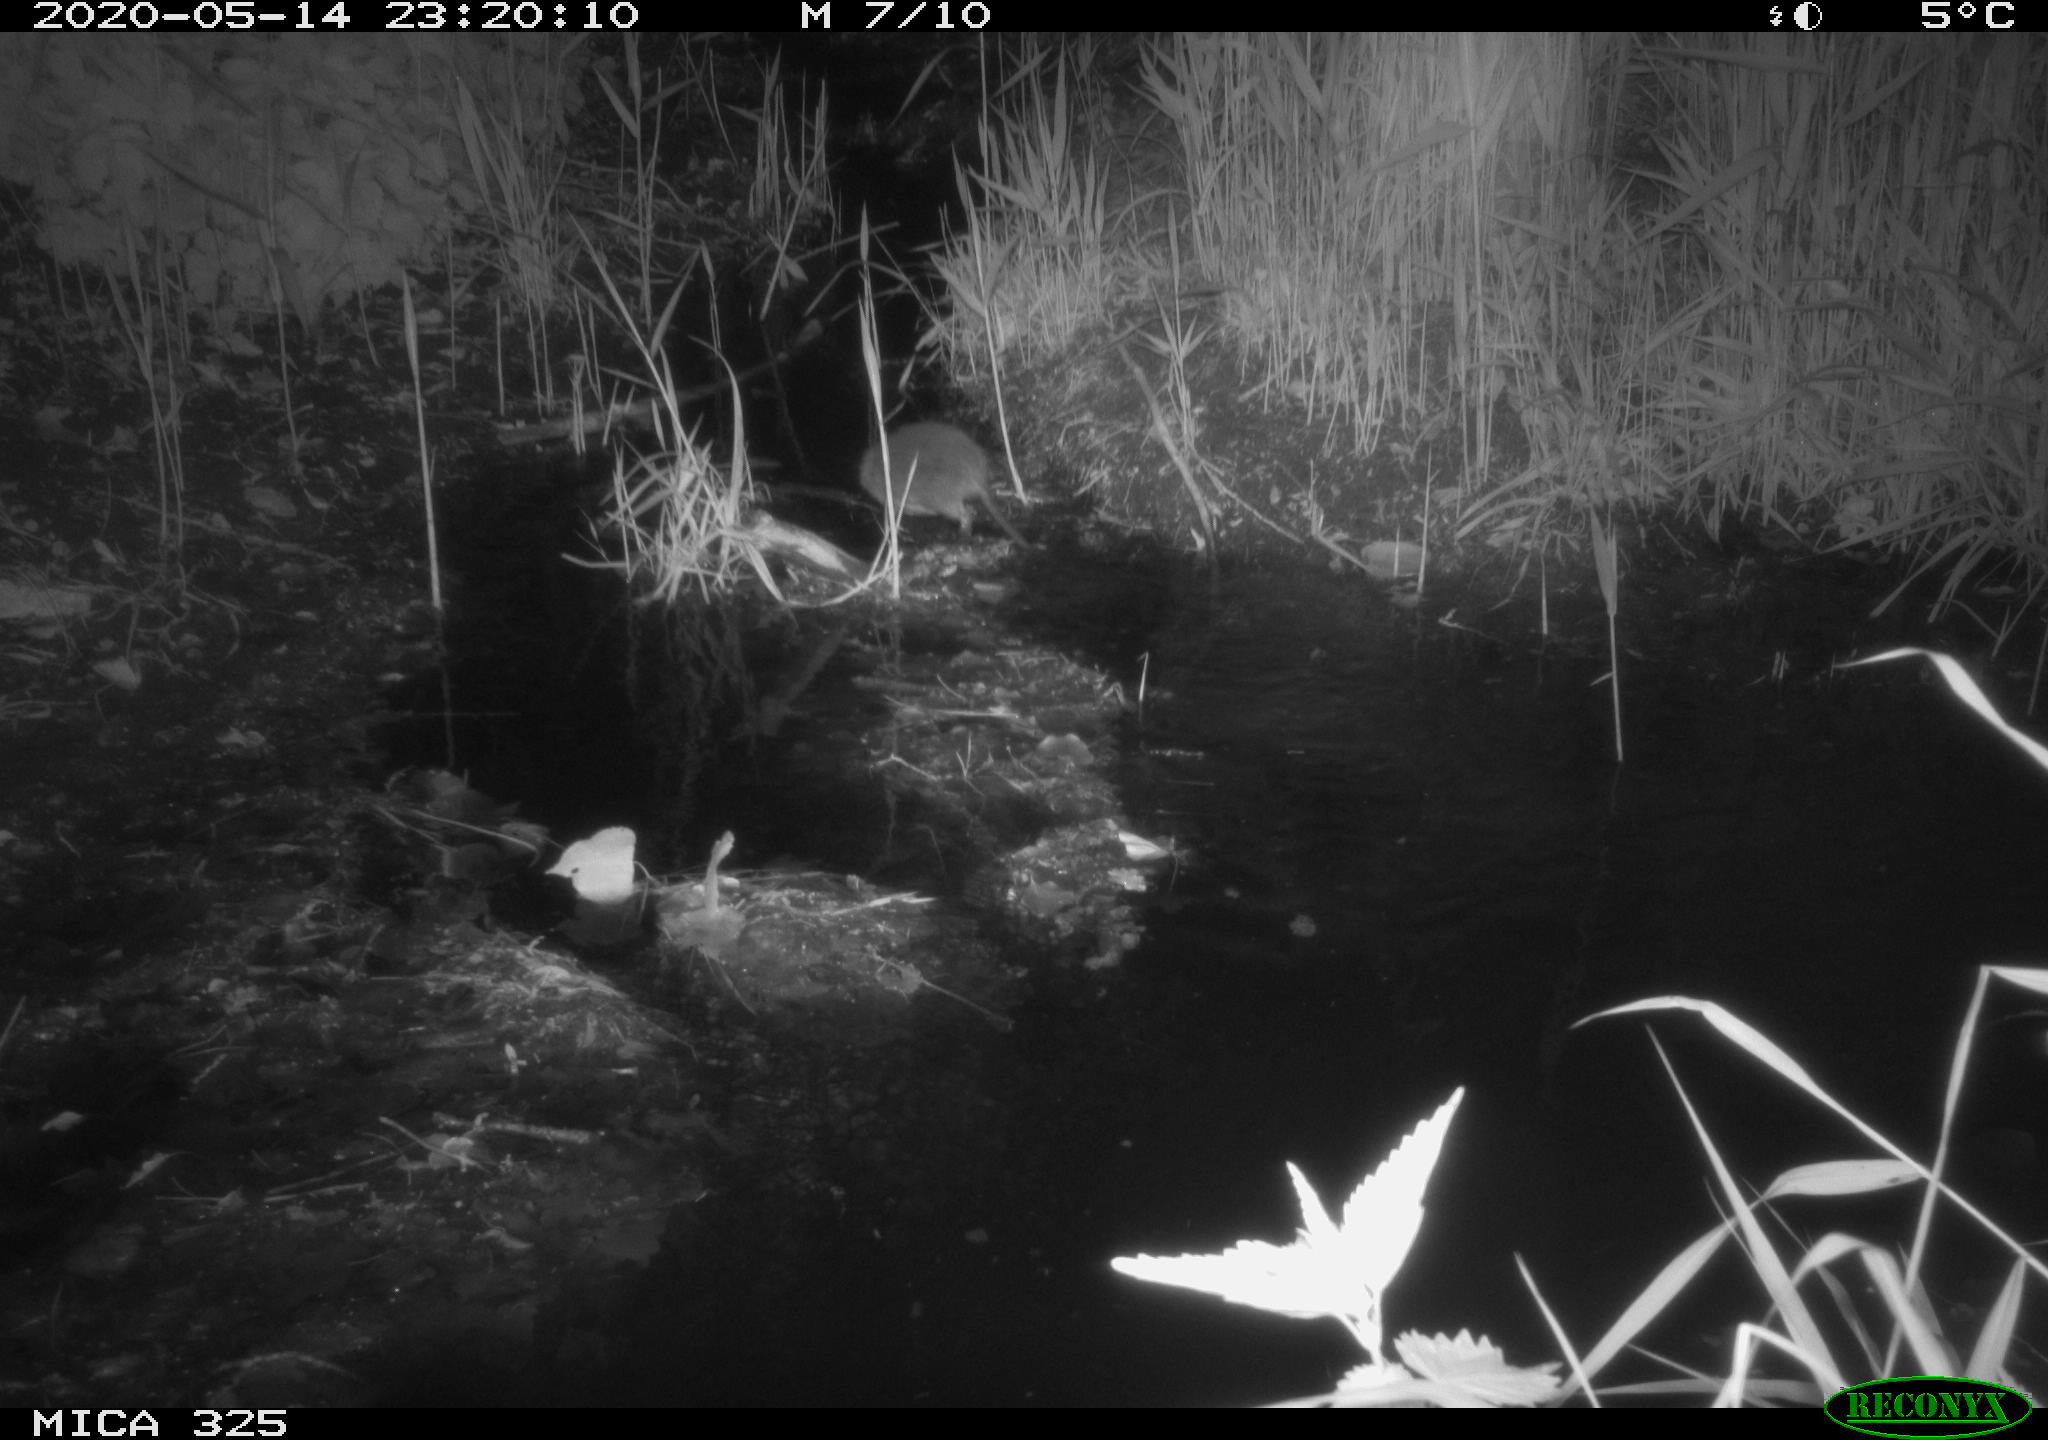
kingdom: Animalia
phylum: Chordata
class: Mammalia
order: Rodentia
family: Myocastoridae
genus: Myocastor
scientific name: Myocastor coypus
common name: Coypu
